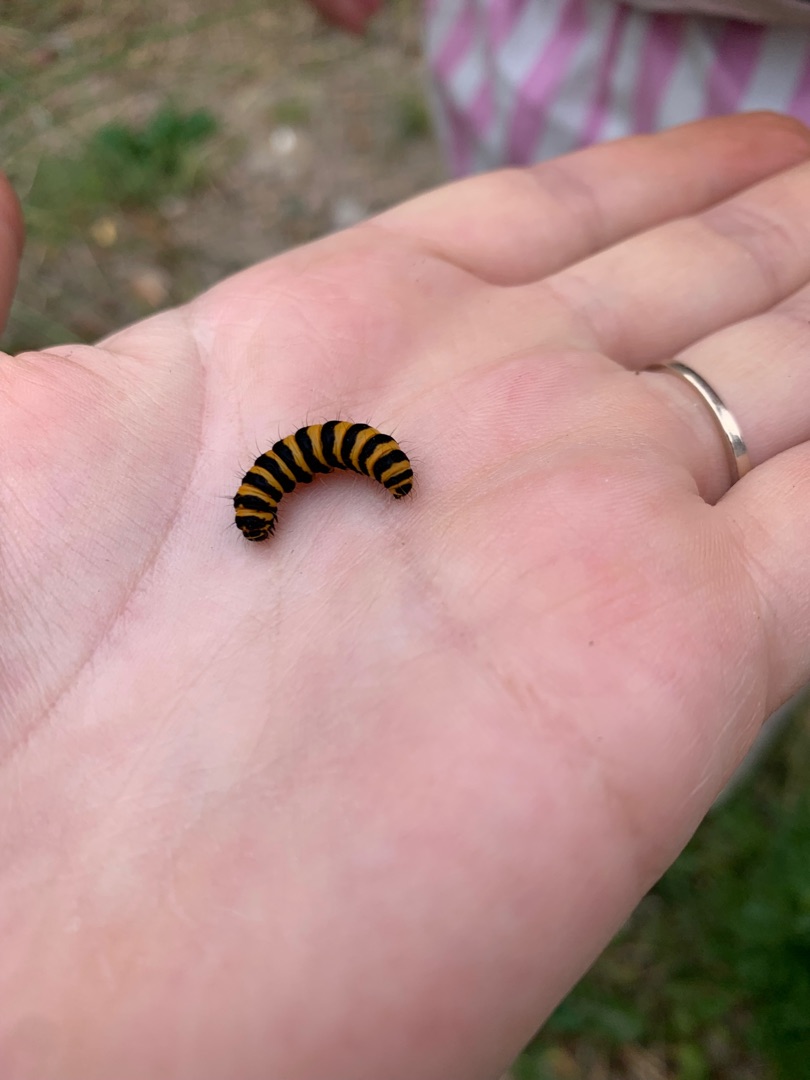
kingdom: Animalia
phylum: Arthropoda
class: Insecta
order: Lepidoptera
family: Erebidae
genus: Tyria
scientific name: Tyria jacobaeae
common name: Blodplet
